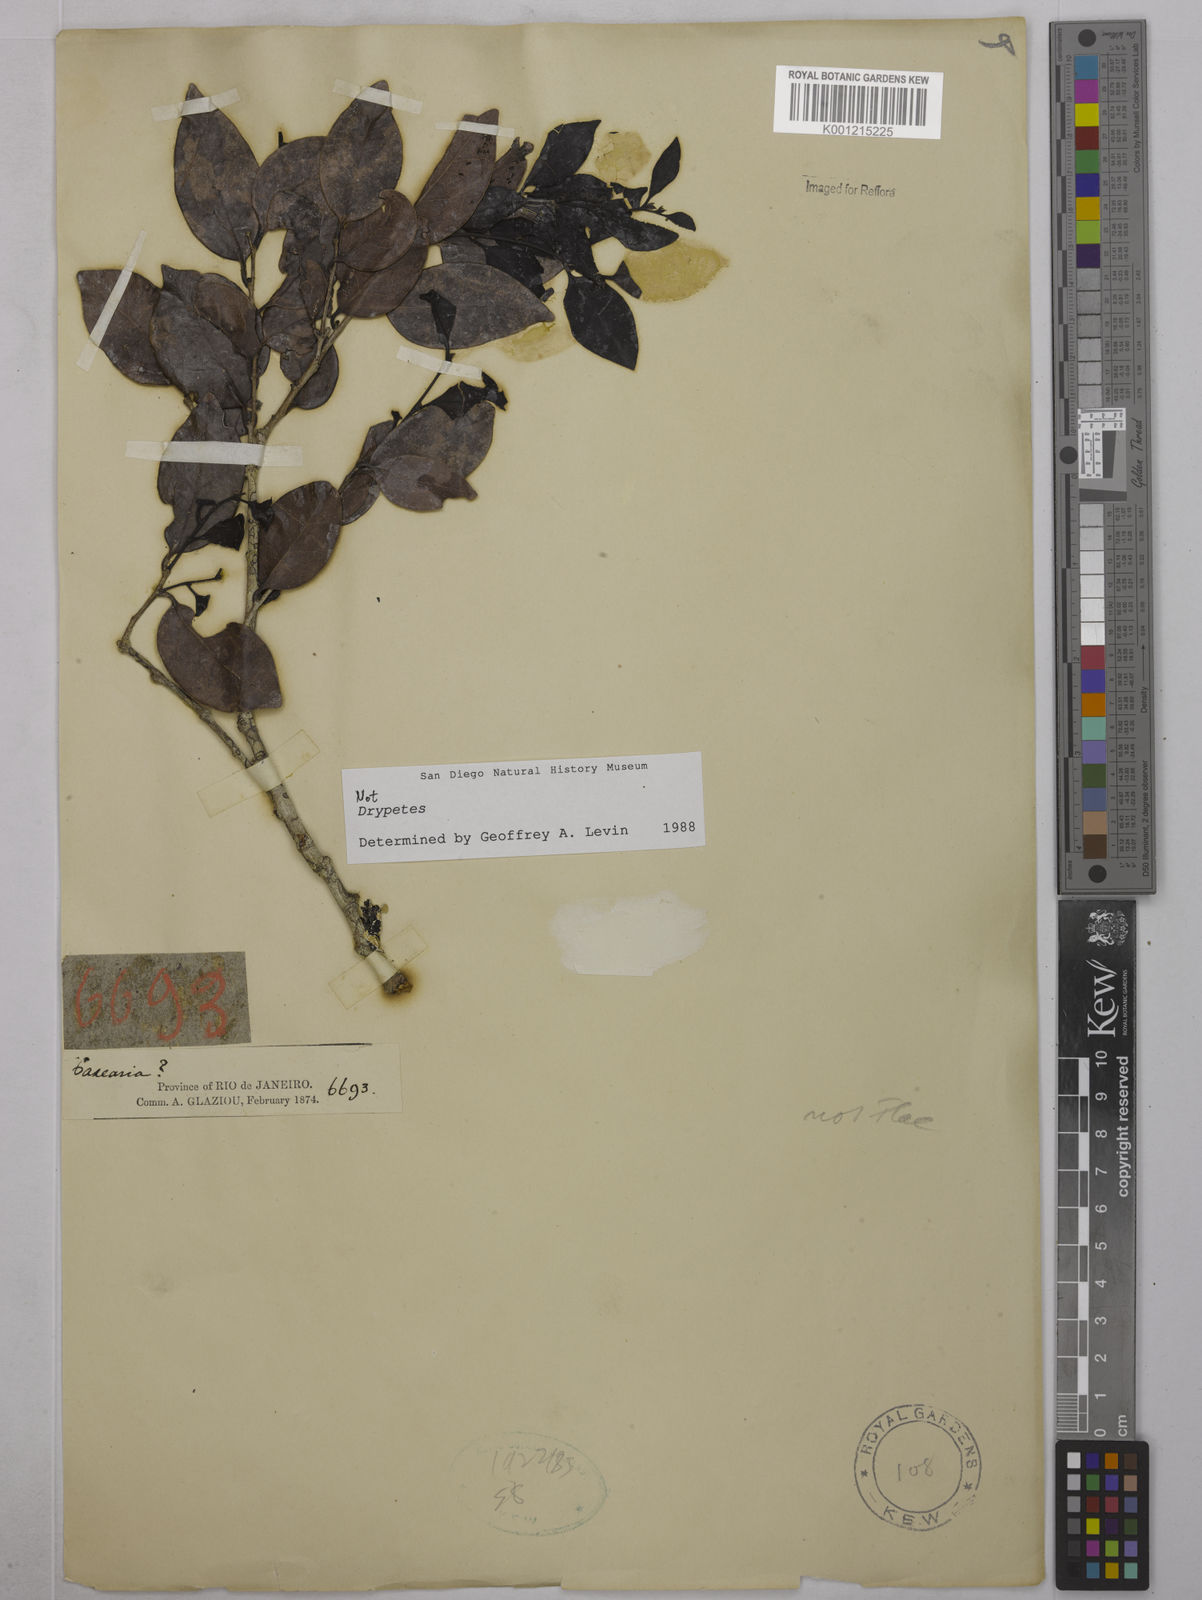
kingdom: Plantae
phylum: Tracheophyta
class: Magnoliopsida
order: Malpighiales
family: Euphorbiaceae
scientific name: Euphorbiaceae
